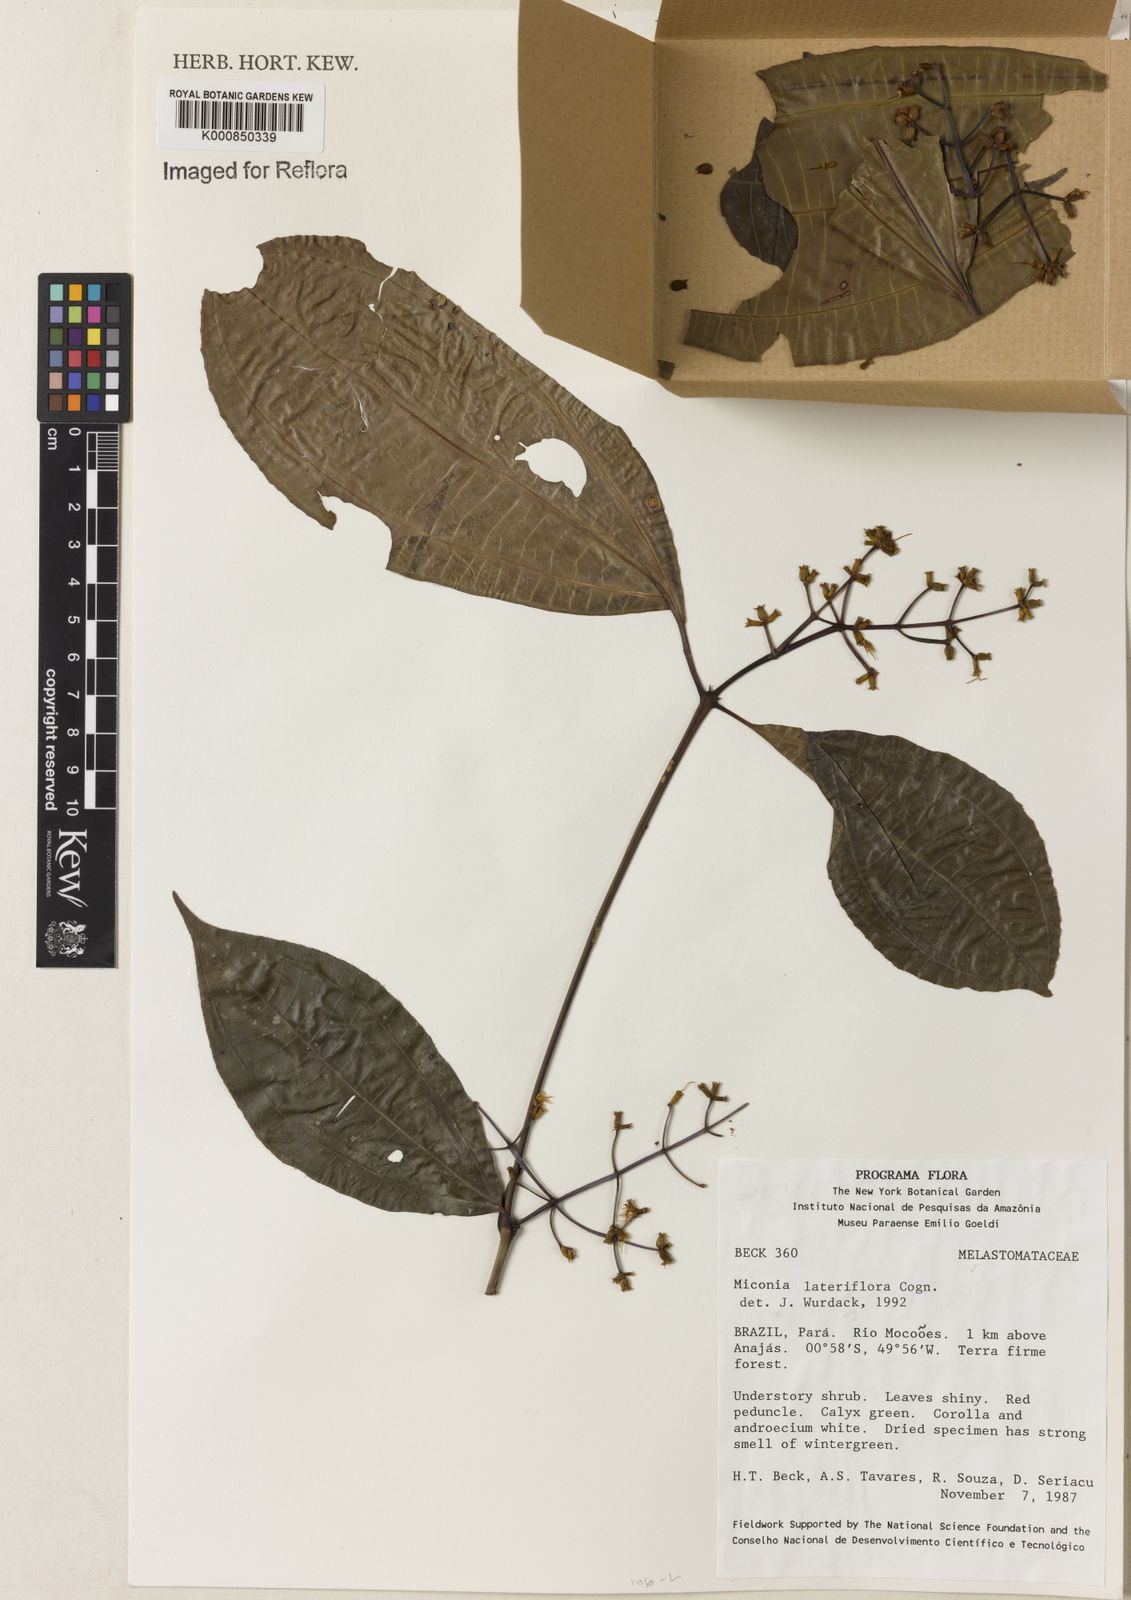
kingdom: Plantae
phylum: Tracheophyta
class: Magnoliopsida
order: Myrtales
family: Melastomataceae
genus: Miconia
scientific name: Miconia lateriflora
